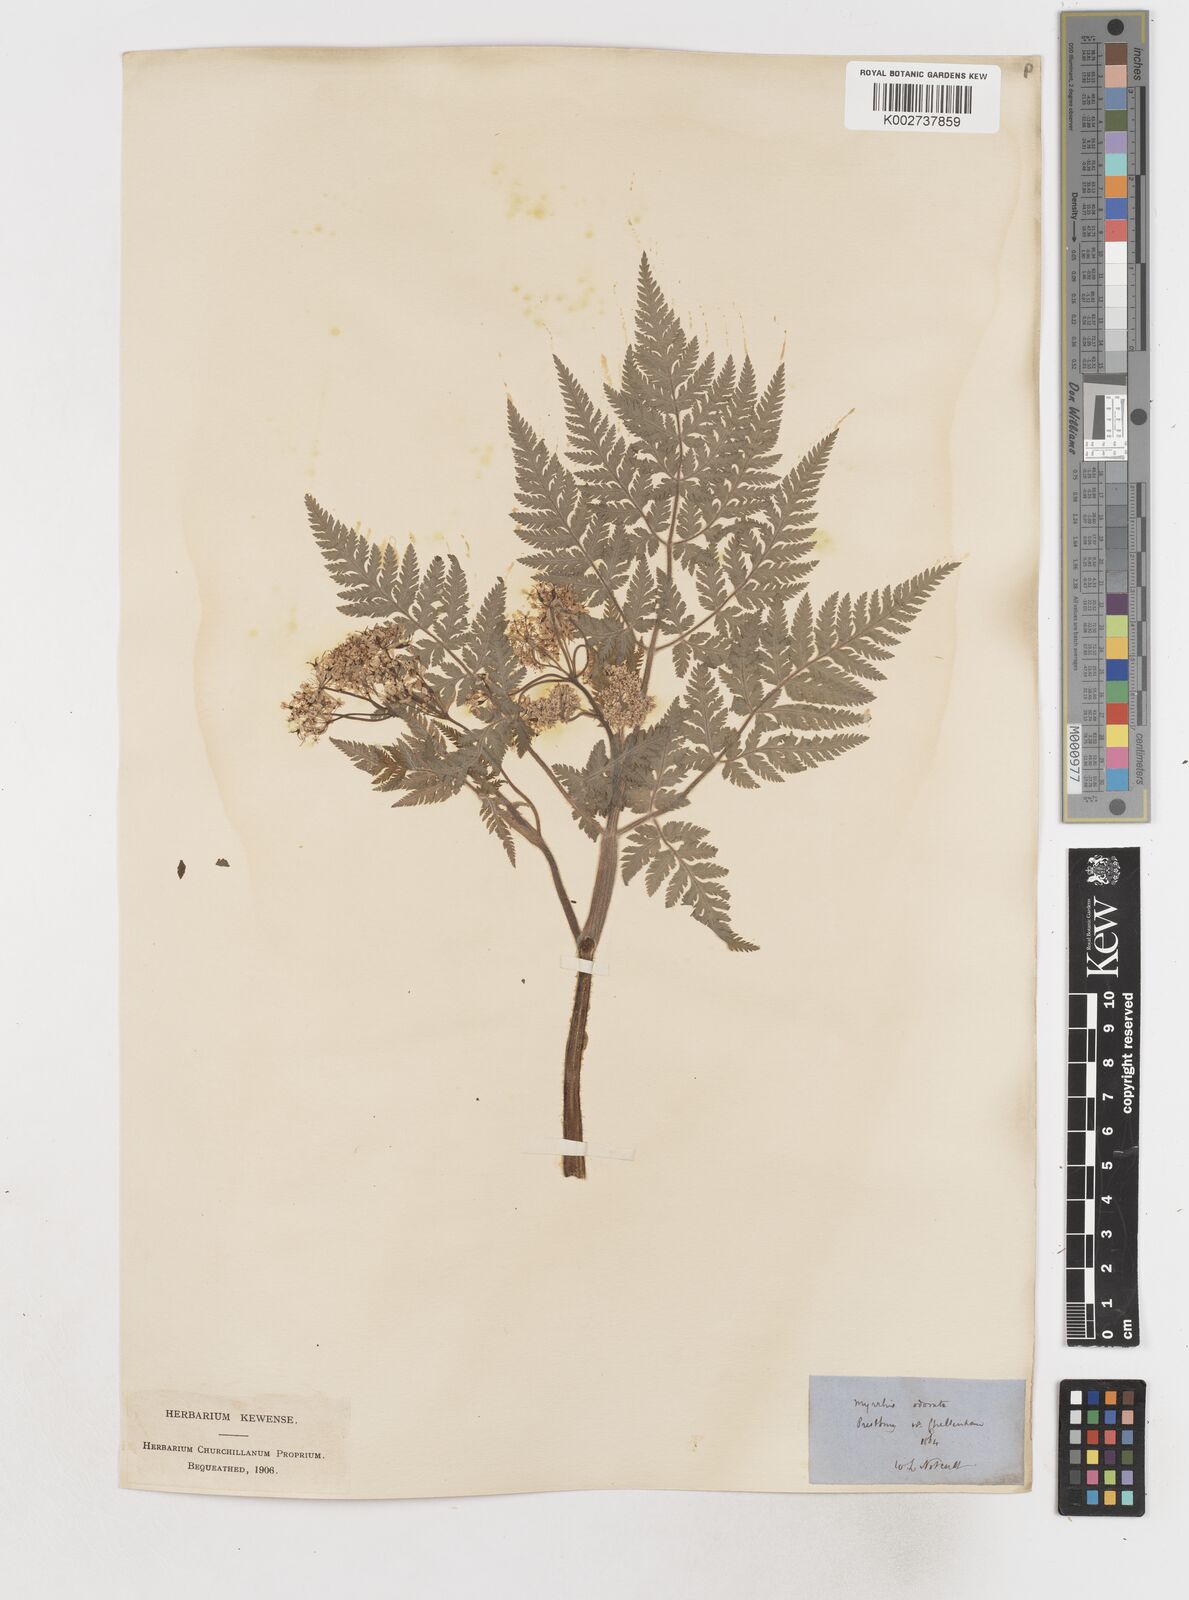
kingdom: Plantae
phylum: Tracheophyta
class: Magnoliopsida
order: Apiales
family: Apiaceae
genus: Myrrhis
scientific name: Myrrhis odorata
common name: Sweet cicely
